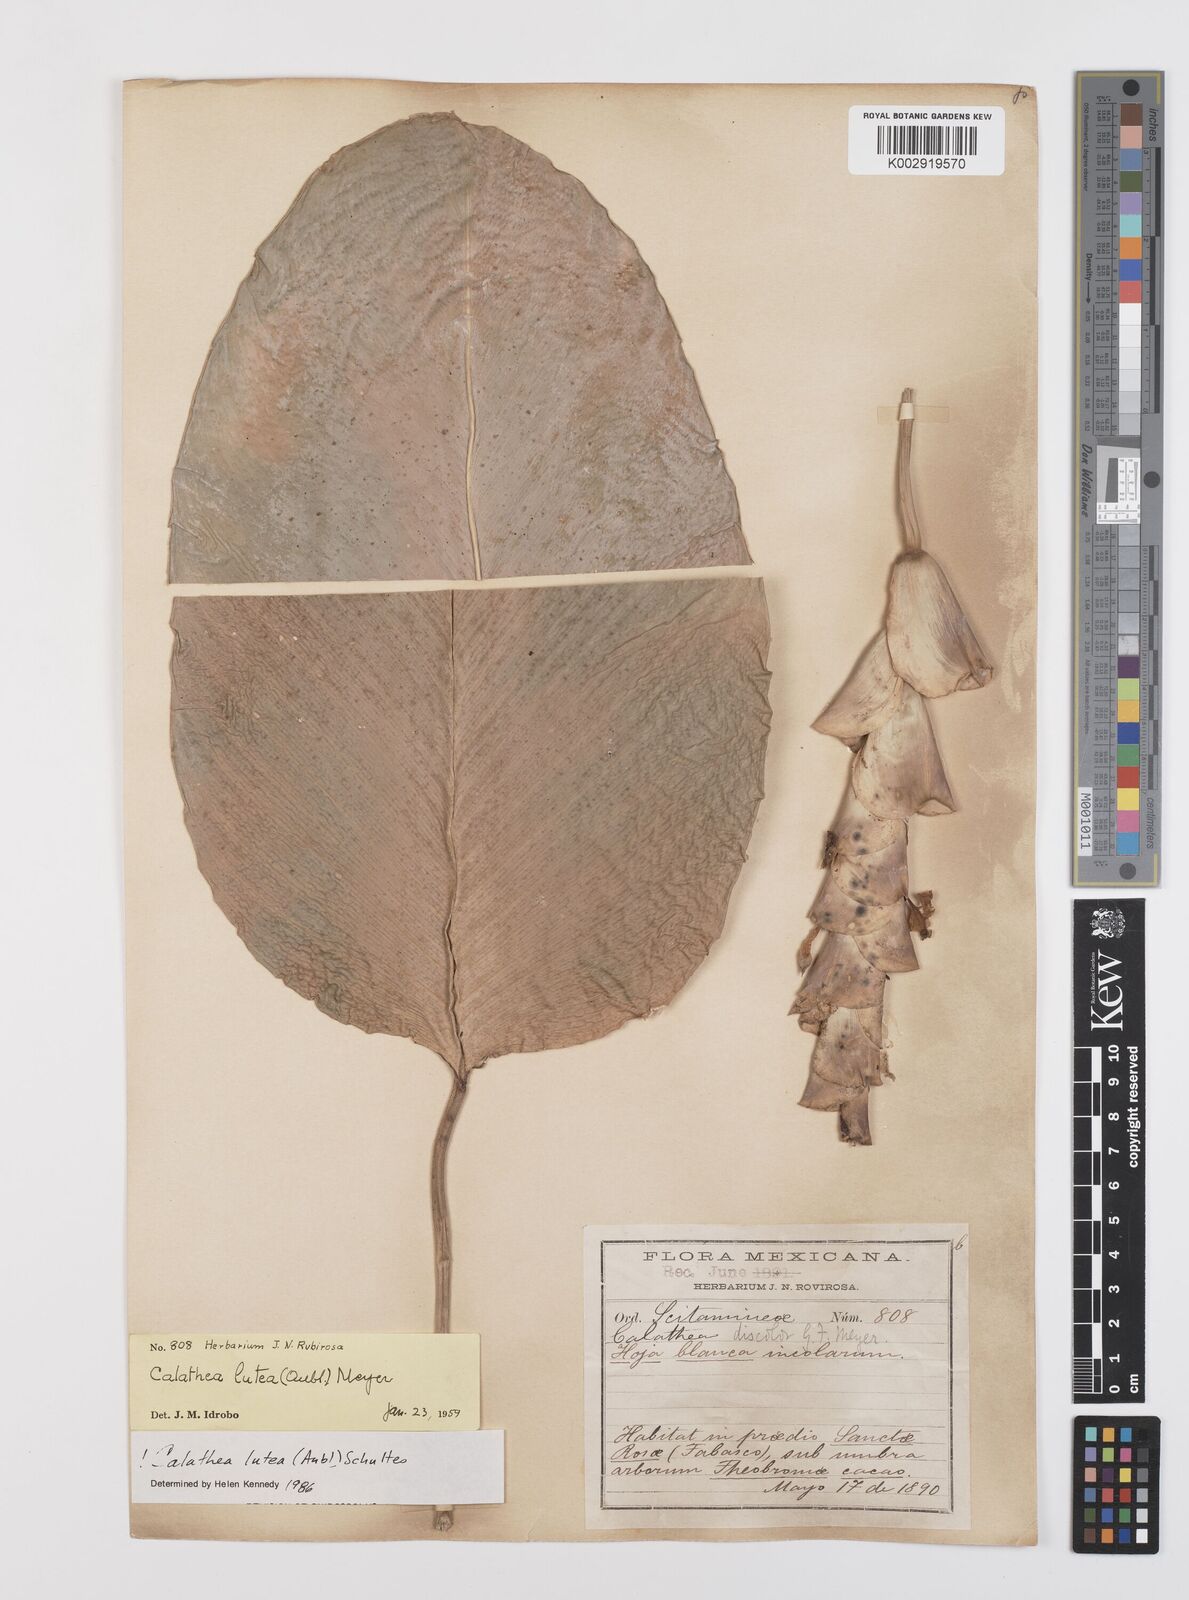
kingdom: Plantae
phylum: Tracheophyta
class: Liliopsida
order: Zingiberales
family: Marantaceae
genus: Calathea
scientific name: Calathea lutea
